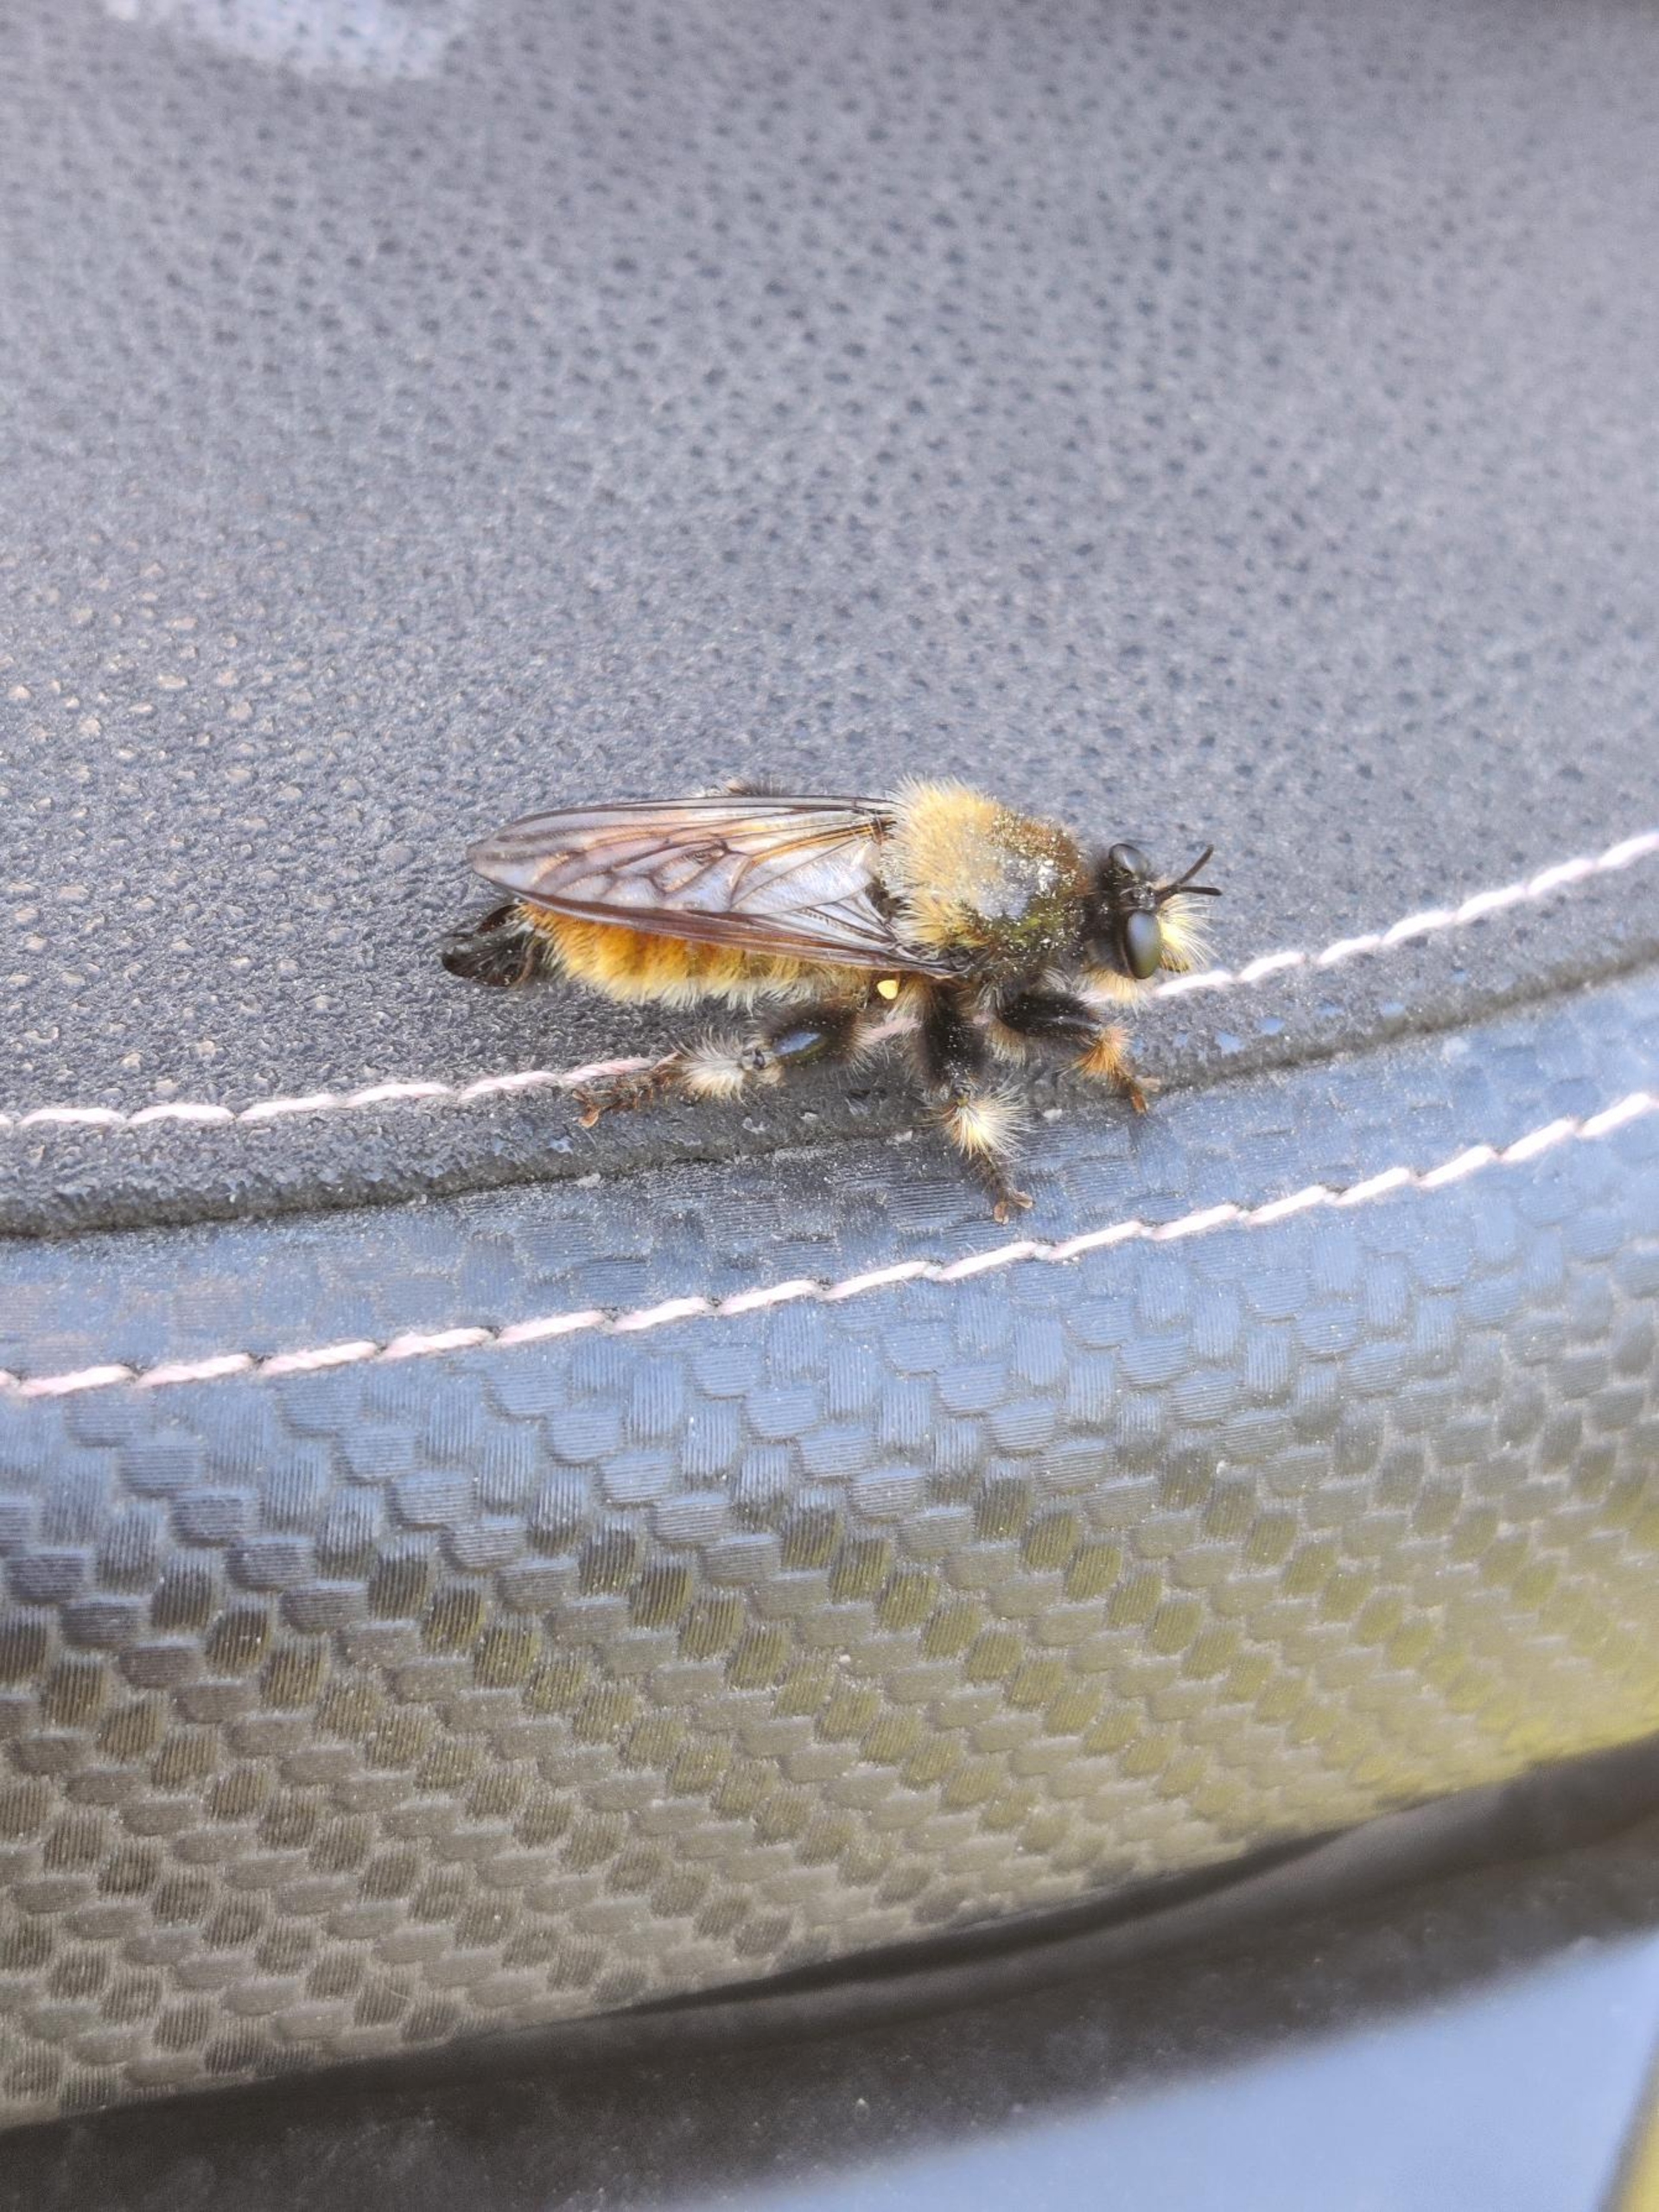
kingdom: Animalia
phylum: Arthropoda
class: Insecta
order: Diptera
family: Asilidae
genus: Laphria
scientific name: Laphria flava
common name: Gul vedrovflue
